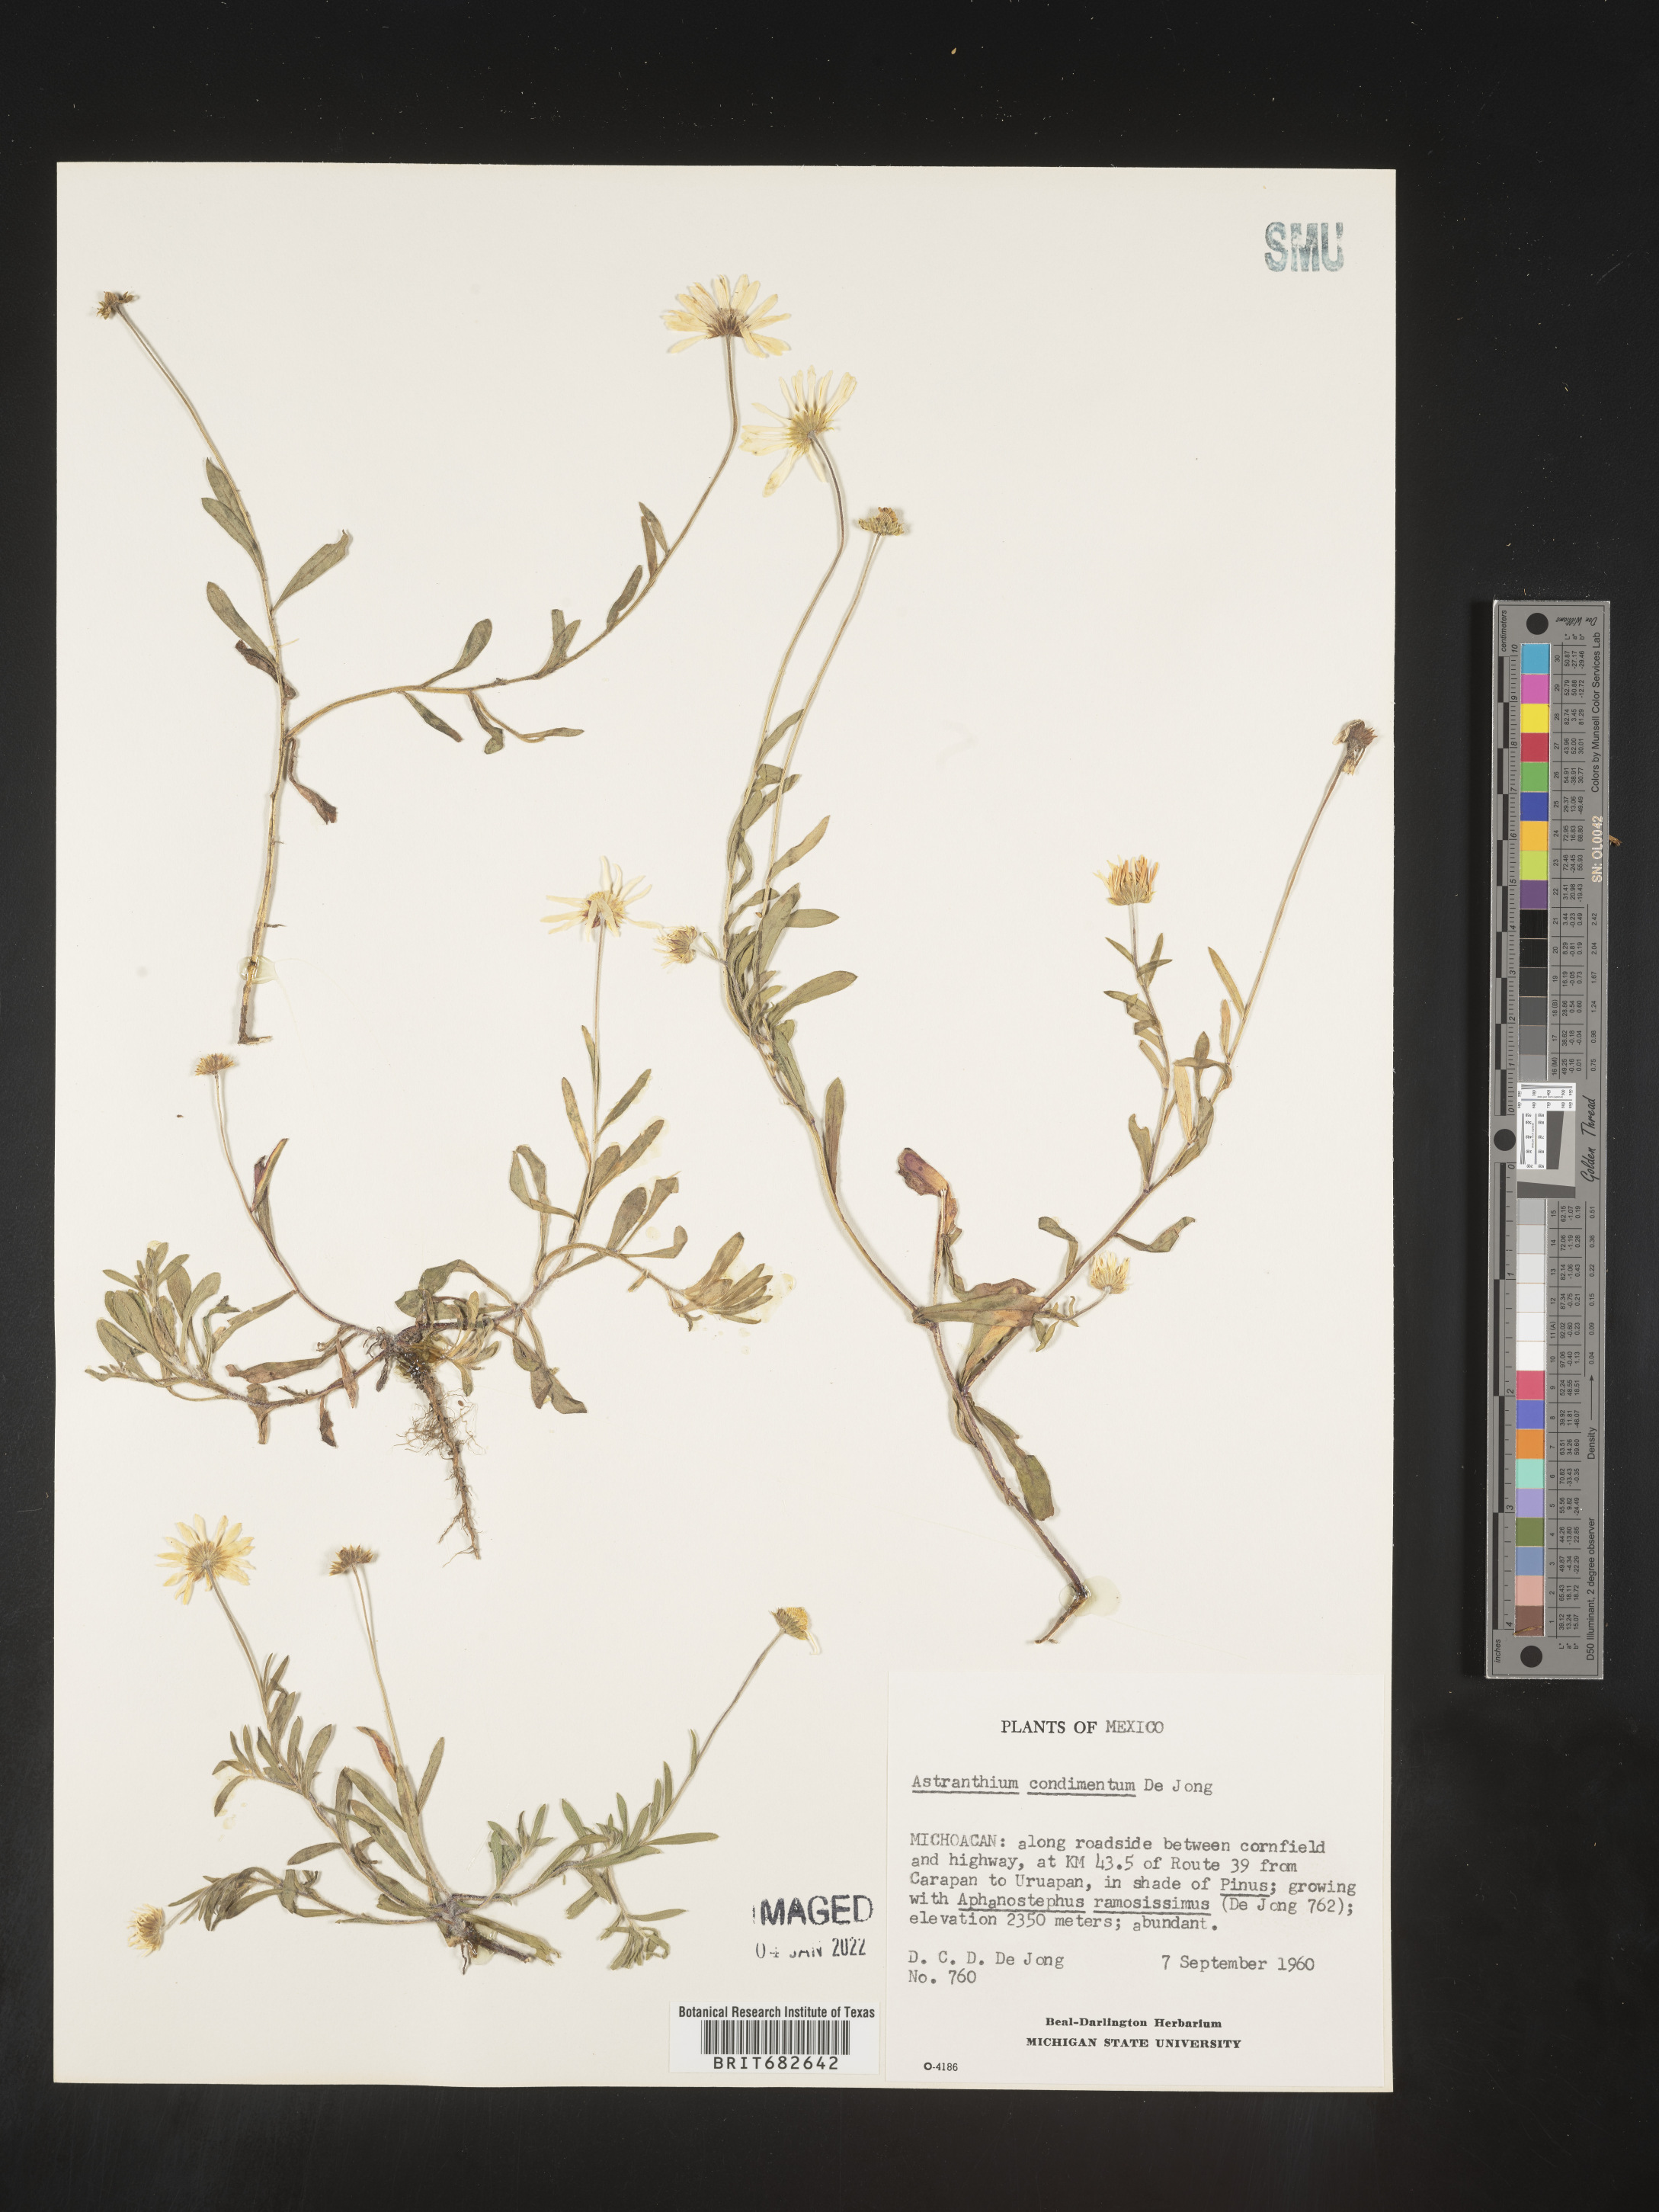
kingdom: Plantae
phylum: Tracheophyta
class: Magnoliopsida
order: Asterales
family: Asteraceae
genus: Astranthium
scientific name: Astranthium
